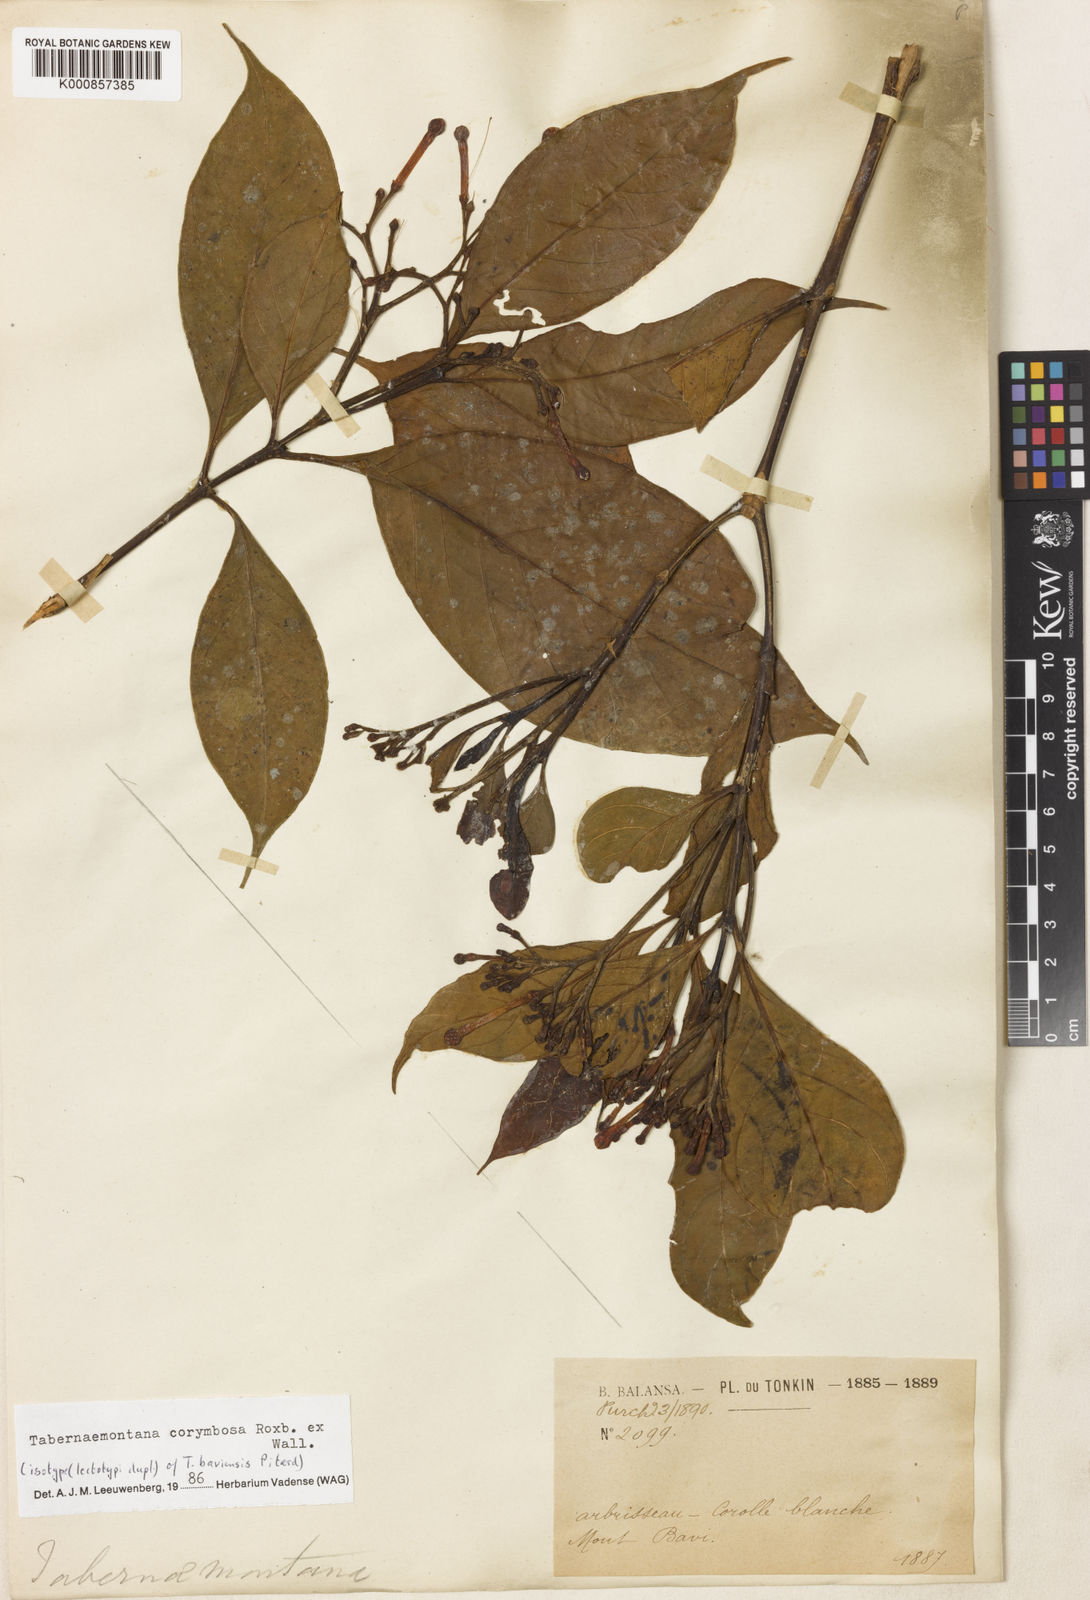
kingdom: Plantae
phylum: Tracheophyta
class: Magnoliopsida
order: Gentianales
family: Apocynaceae
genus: Tabernaemontana
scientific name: Tabernaemontana corymbosa
